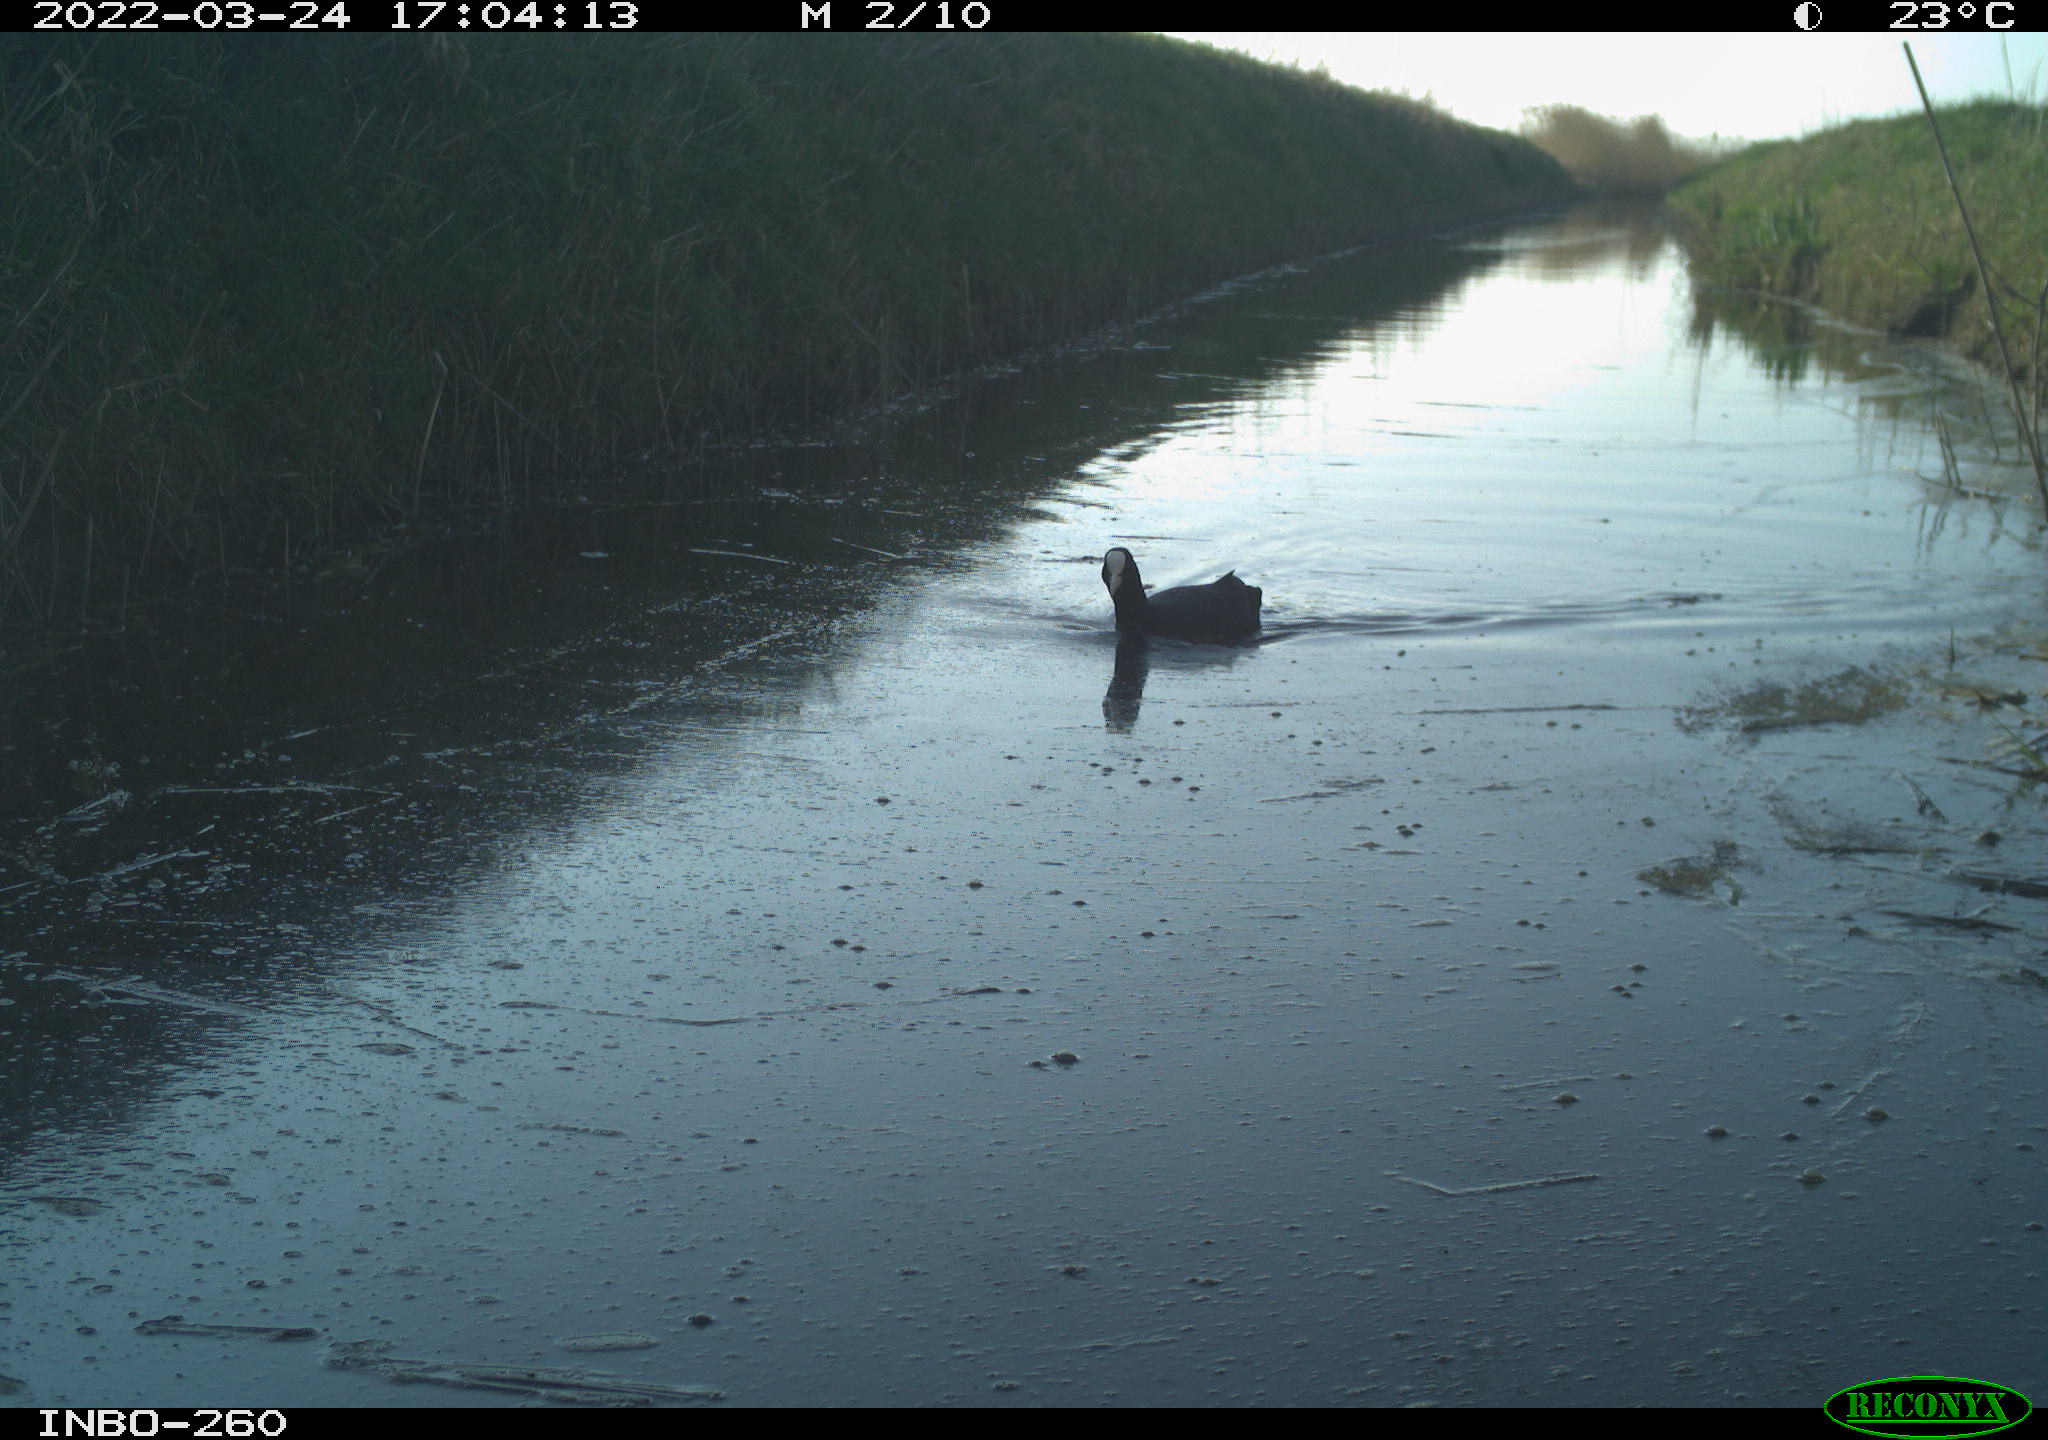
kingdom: Animalia
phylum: Chordata
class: Aves
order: Gruiformes
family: Rallidae
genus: Fulica
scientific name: Fulica atra
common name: Eurasian coot
